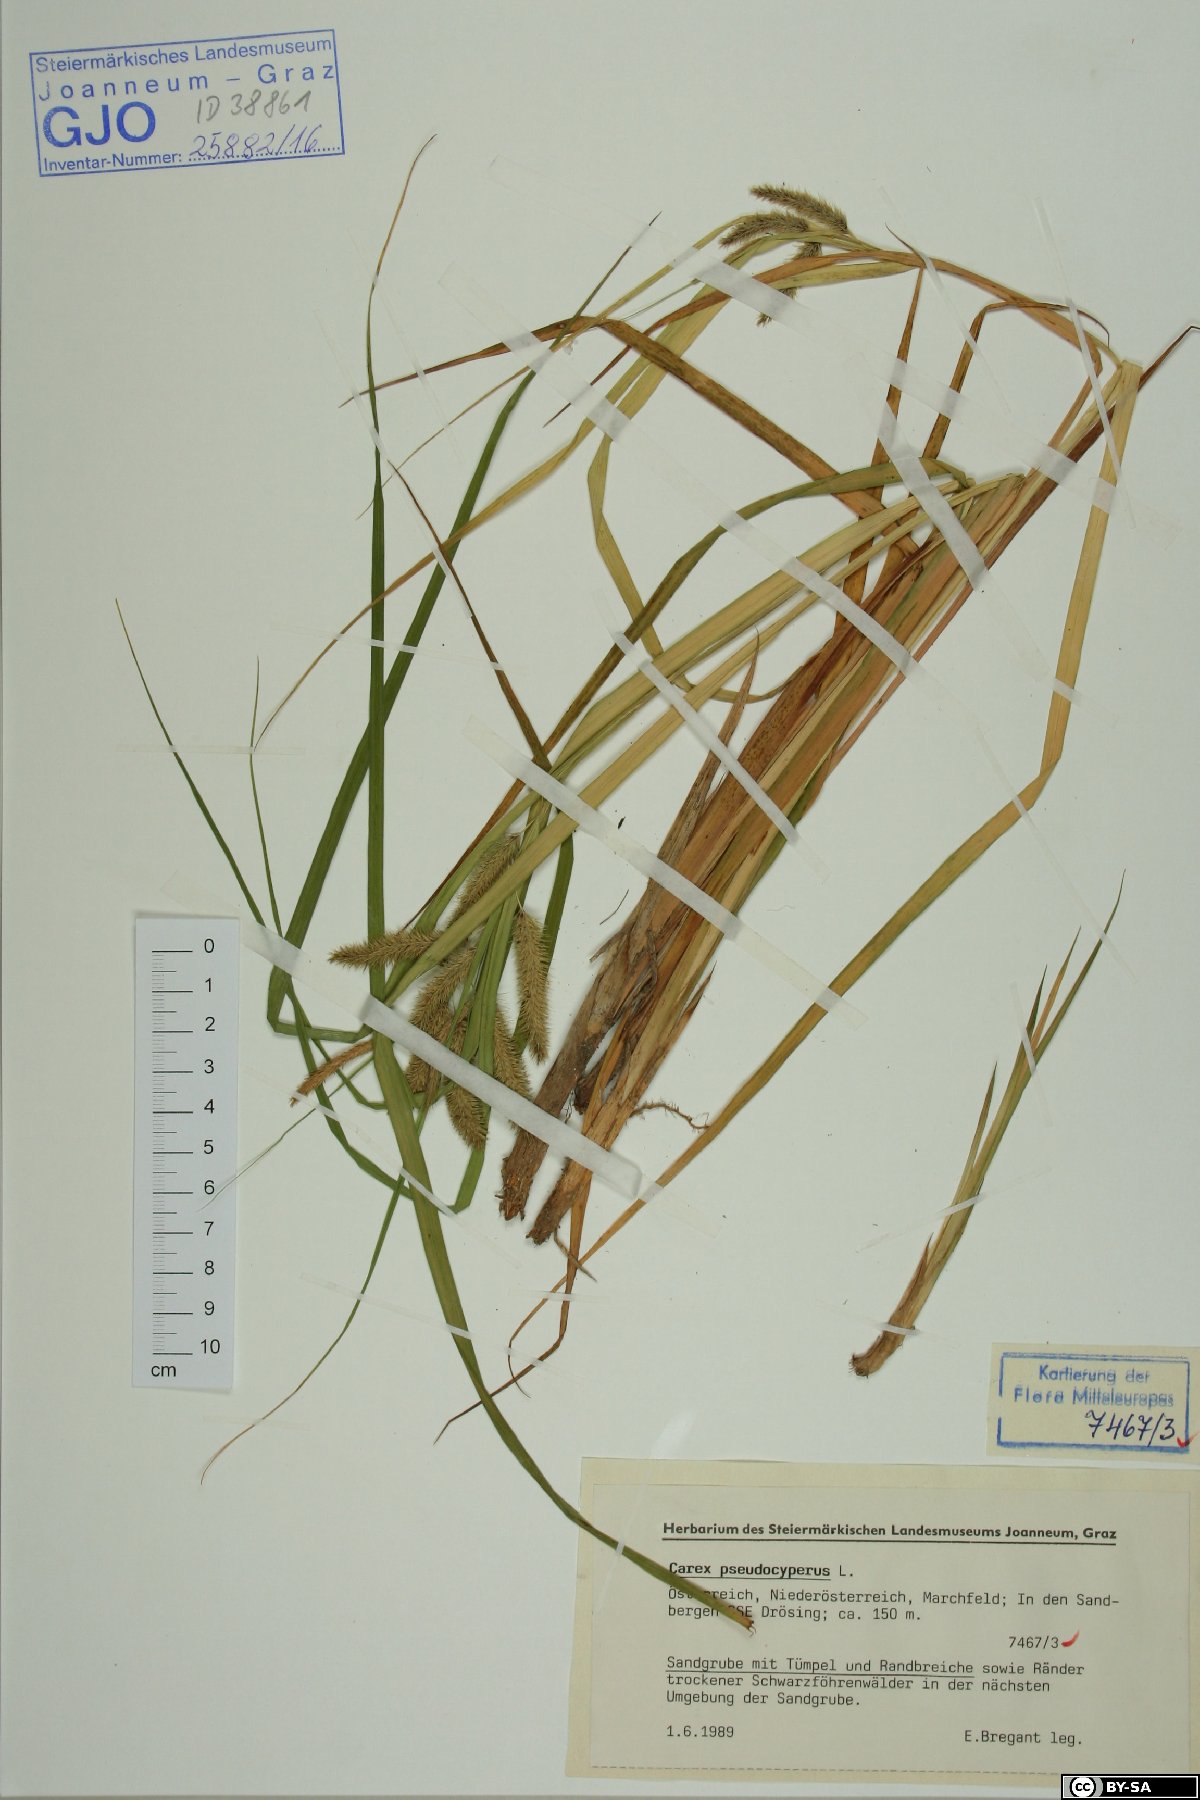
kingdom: Plantae
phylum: Tracheophyta
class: Liliopsida
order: Poales
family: Cyperaceae
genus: Carex
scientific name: Carex pseudocyperus
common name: Cyperus sedge
